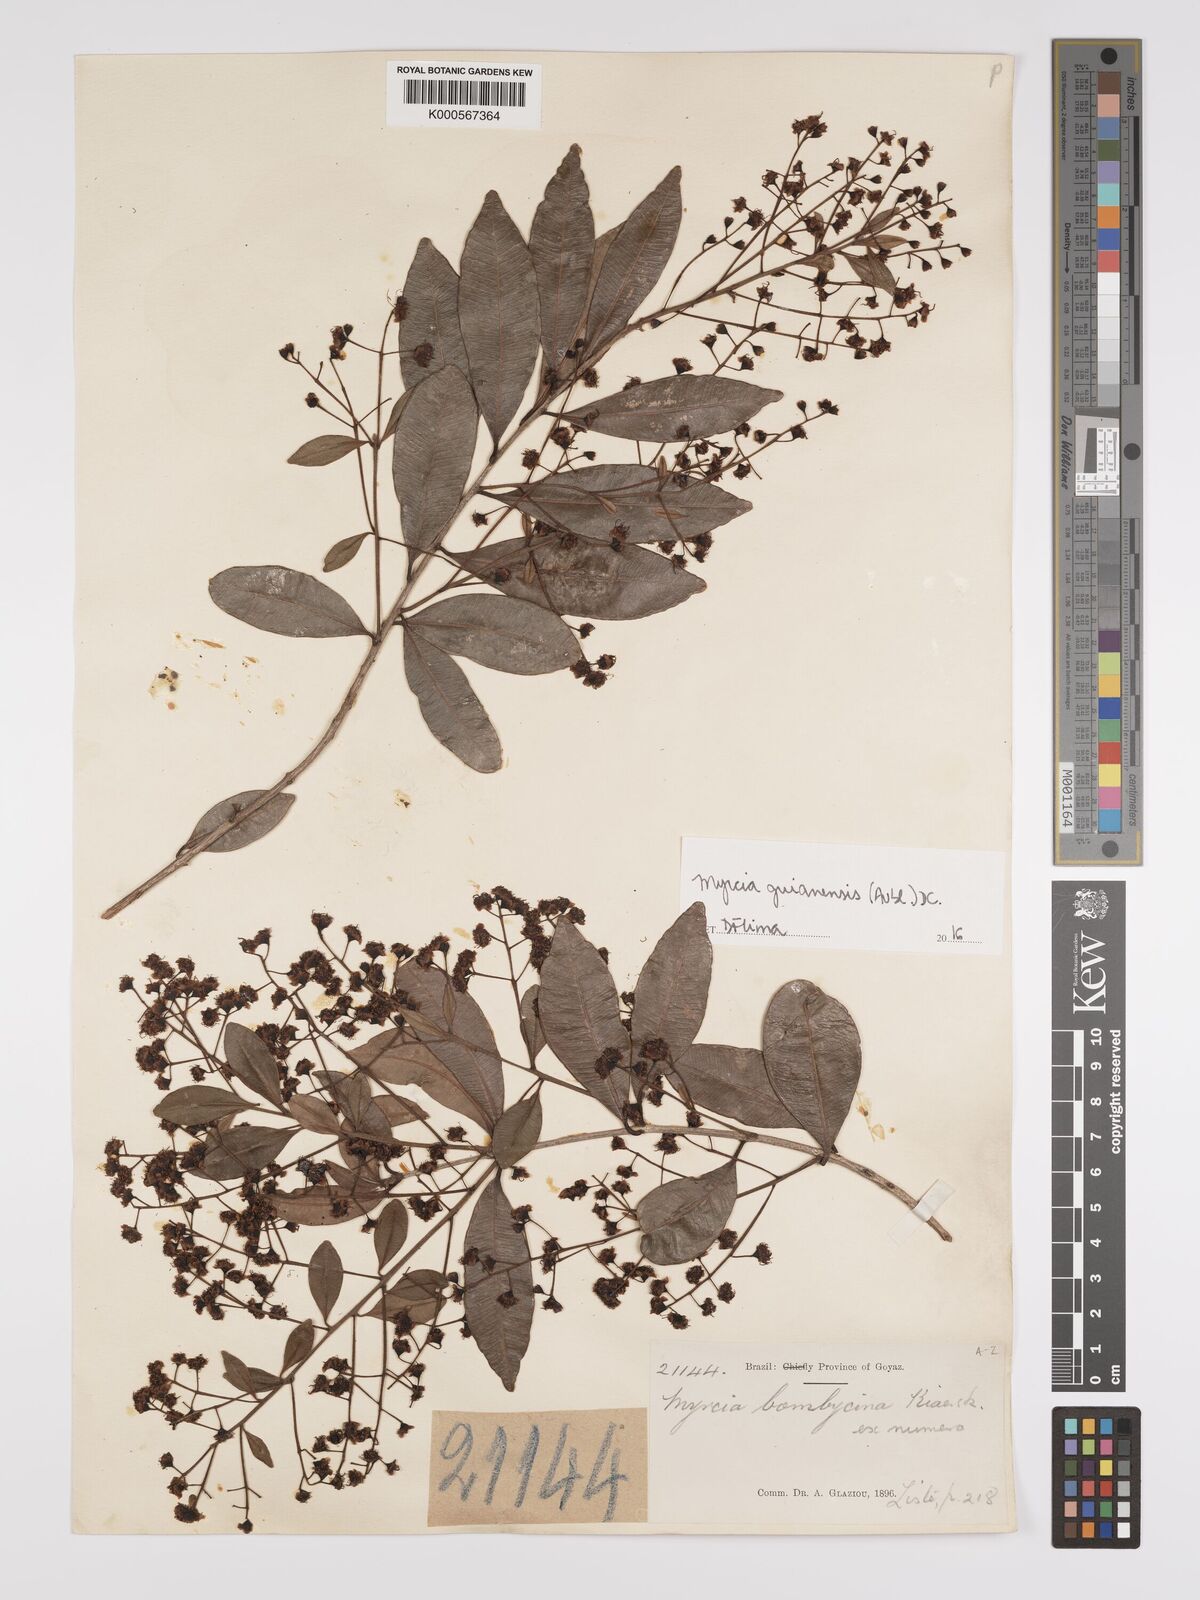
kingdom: Plantae
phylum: Tracheophyta
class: Magnoliopsida
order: Myrtales
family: Myrtaceae
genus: Myrcia
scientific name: Myrcia guianensis
